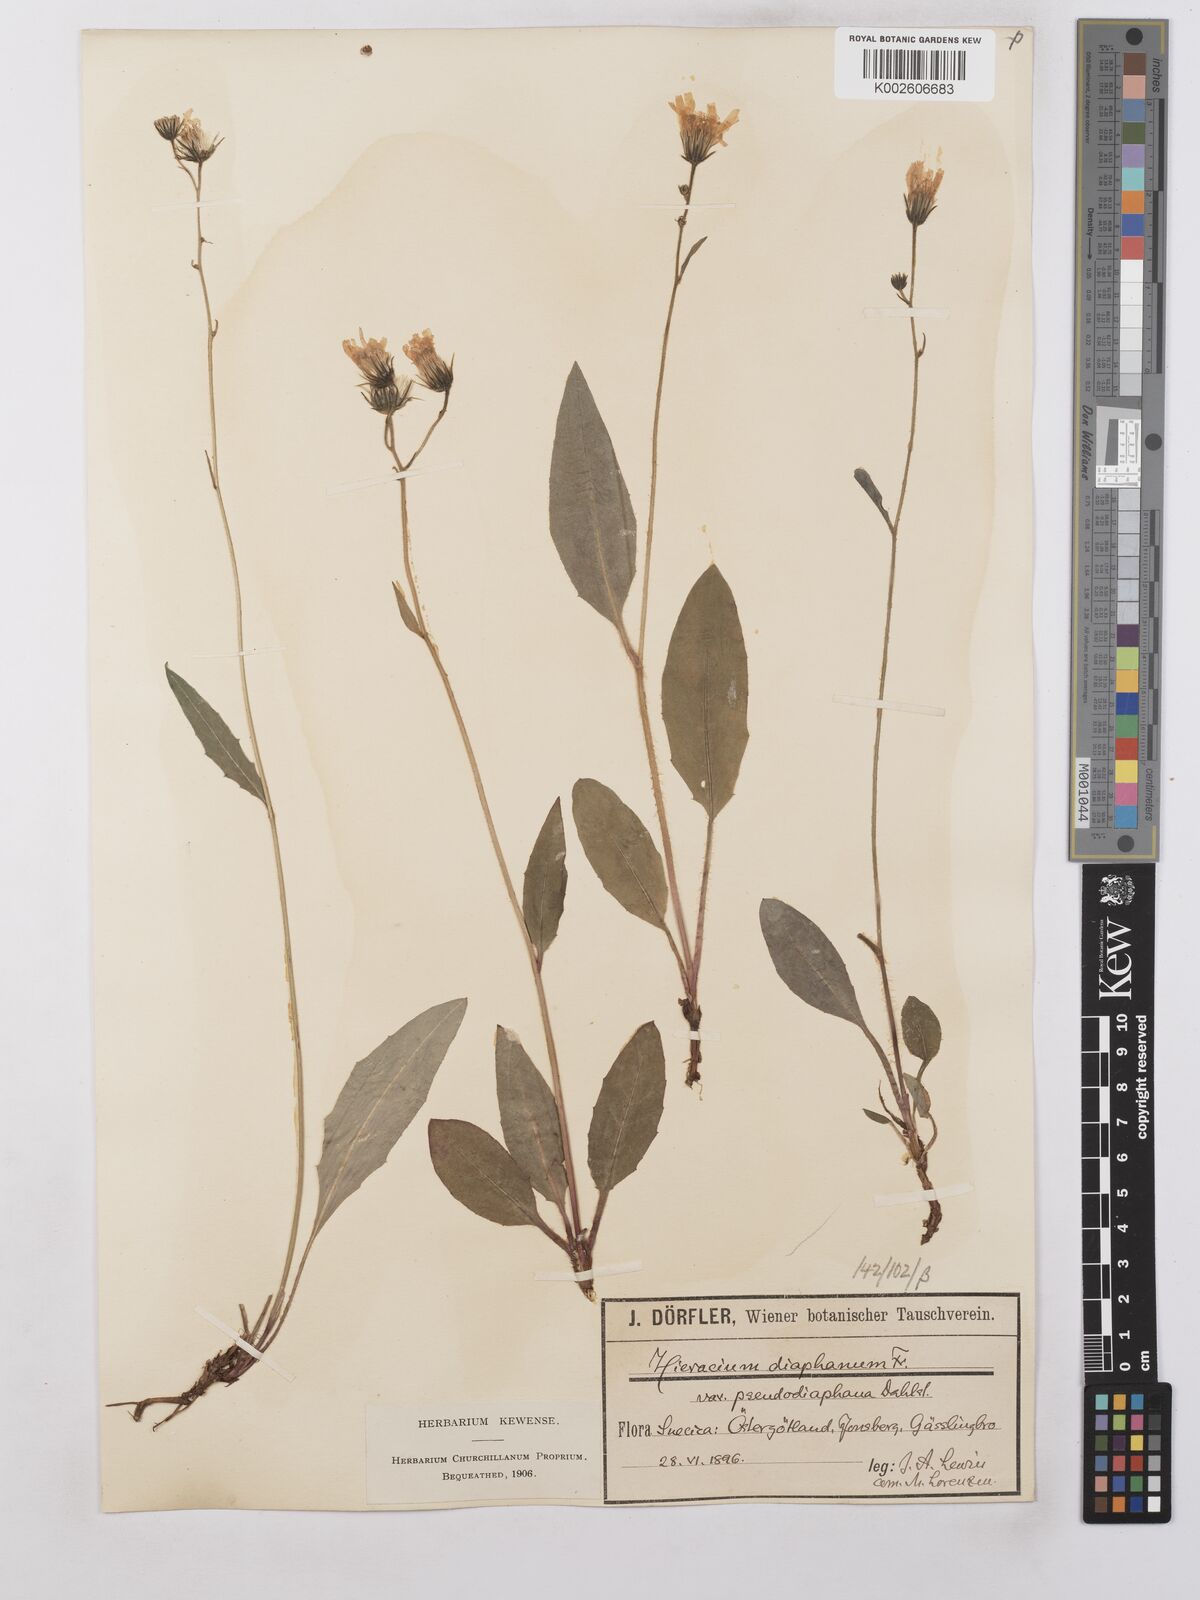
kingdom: Plantae
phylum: Tracheophyta
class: Magnoliopsida
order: Asterales
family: Asteraceae
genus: Hieracium
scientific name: Hieracium lachenalii
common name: Common hawkweed
